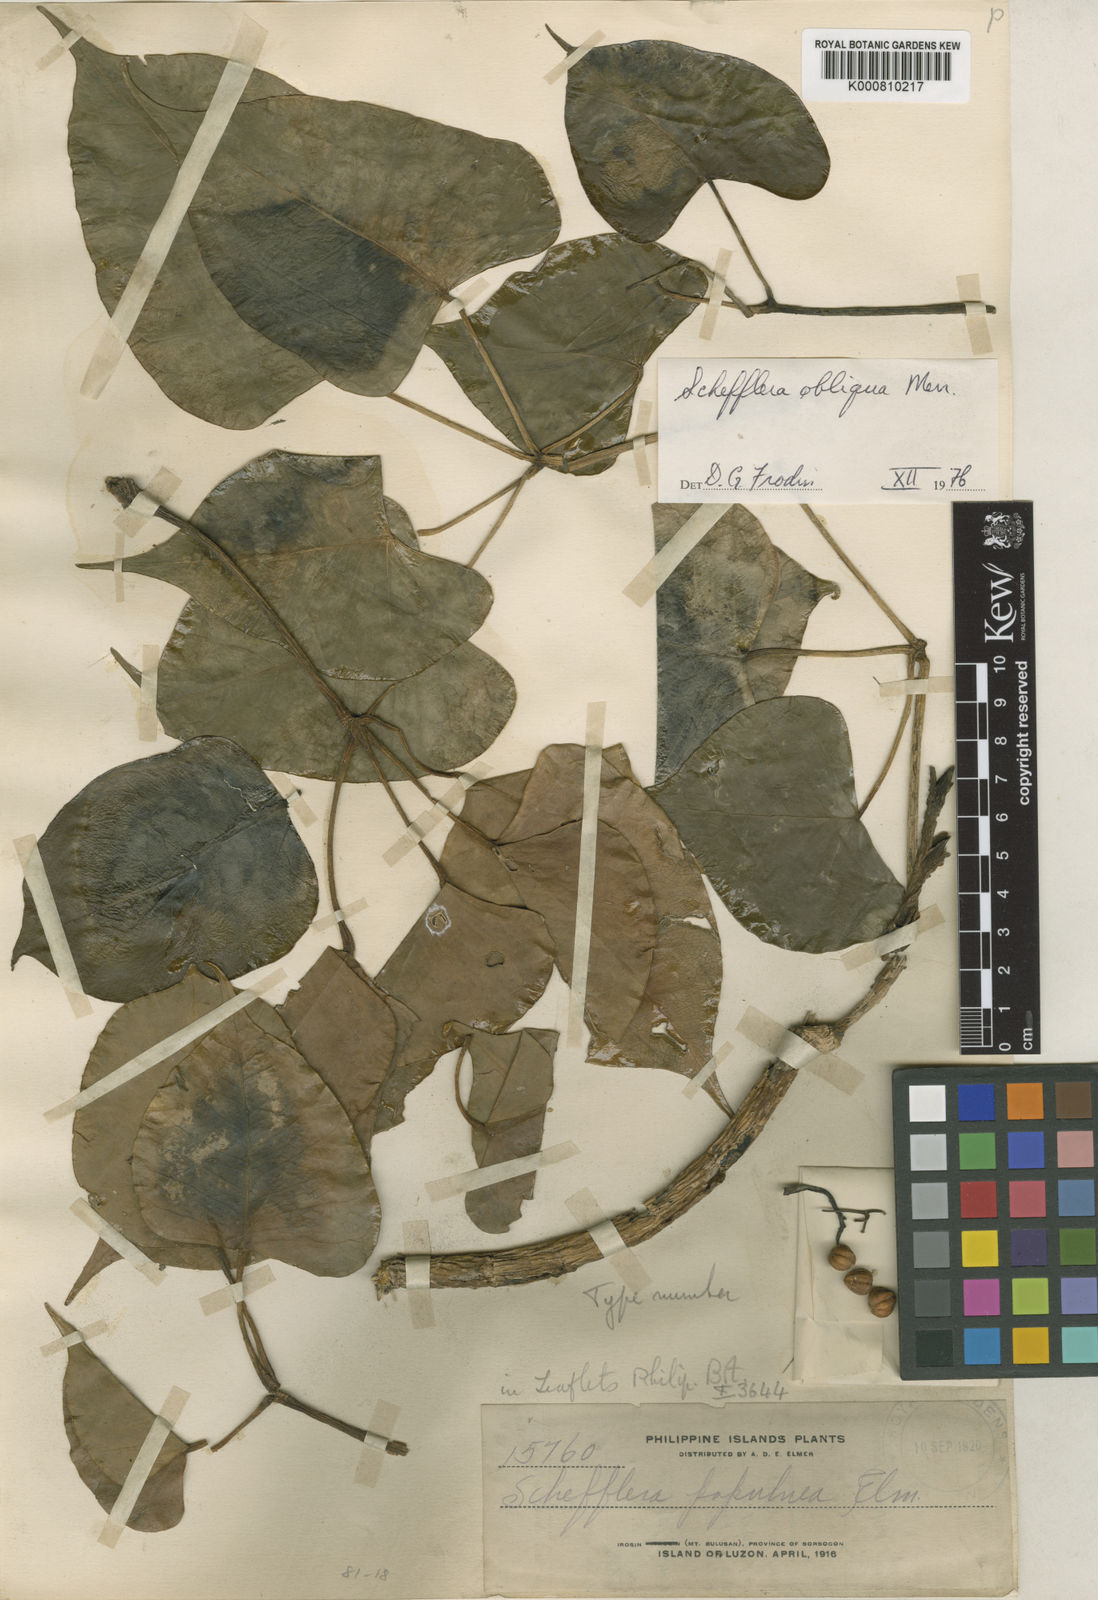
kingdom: Plantae
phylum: Tracheophyta
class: Magnoliopsida
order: Apiales
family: Araliaceae
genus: Heptapleurum
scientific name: Heptapleurum obliquum
